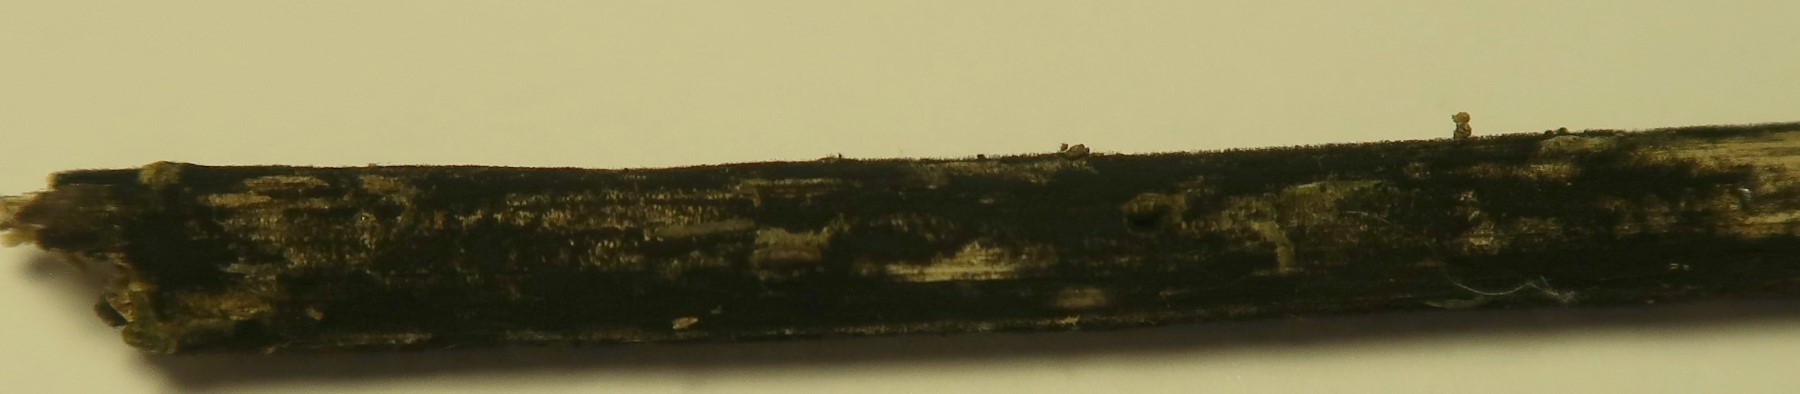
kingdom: Fungi
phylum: Ascomycota
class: Dothideomycetes
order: Pleosporales
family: Torulaceae
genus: Torula
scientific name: Torula herbarum
